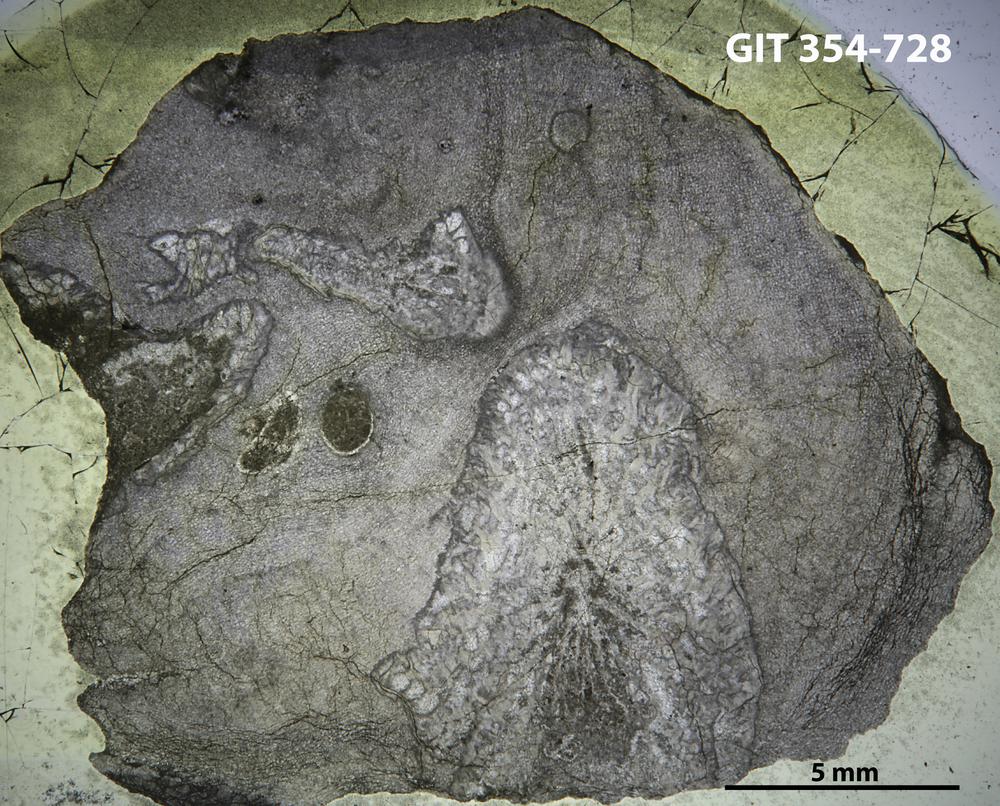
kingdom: Animalia
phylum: Porifera
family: Actinostromatidae
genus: Plectostroma
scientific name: Plectostroma
